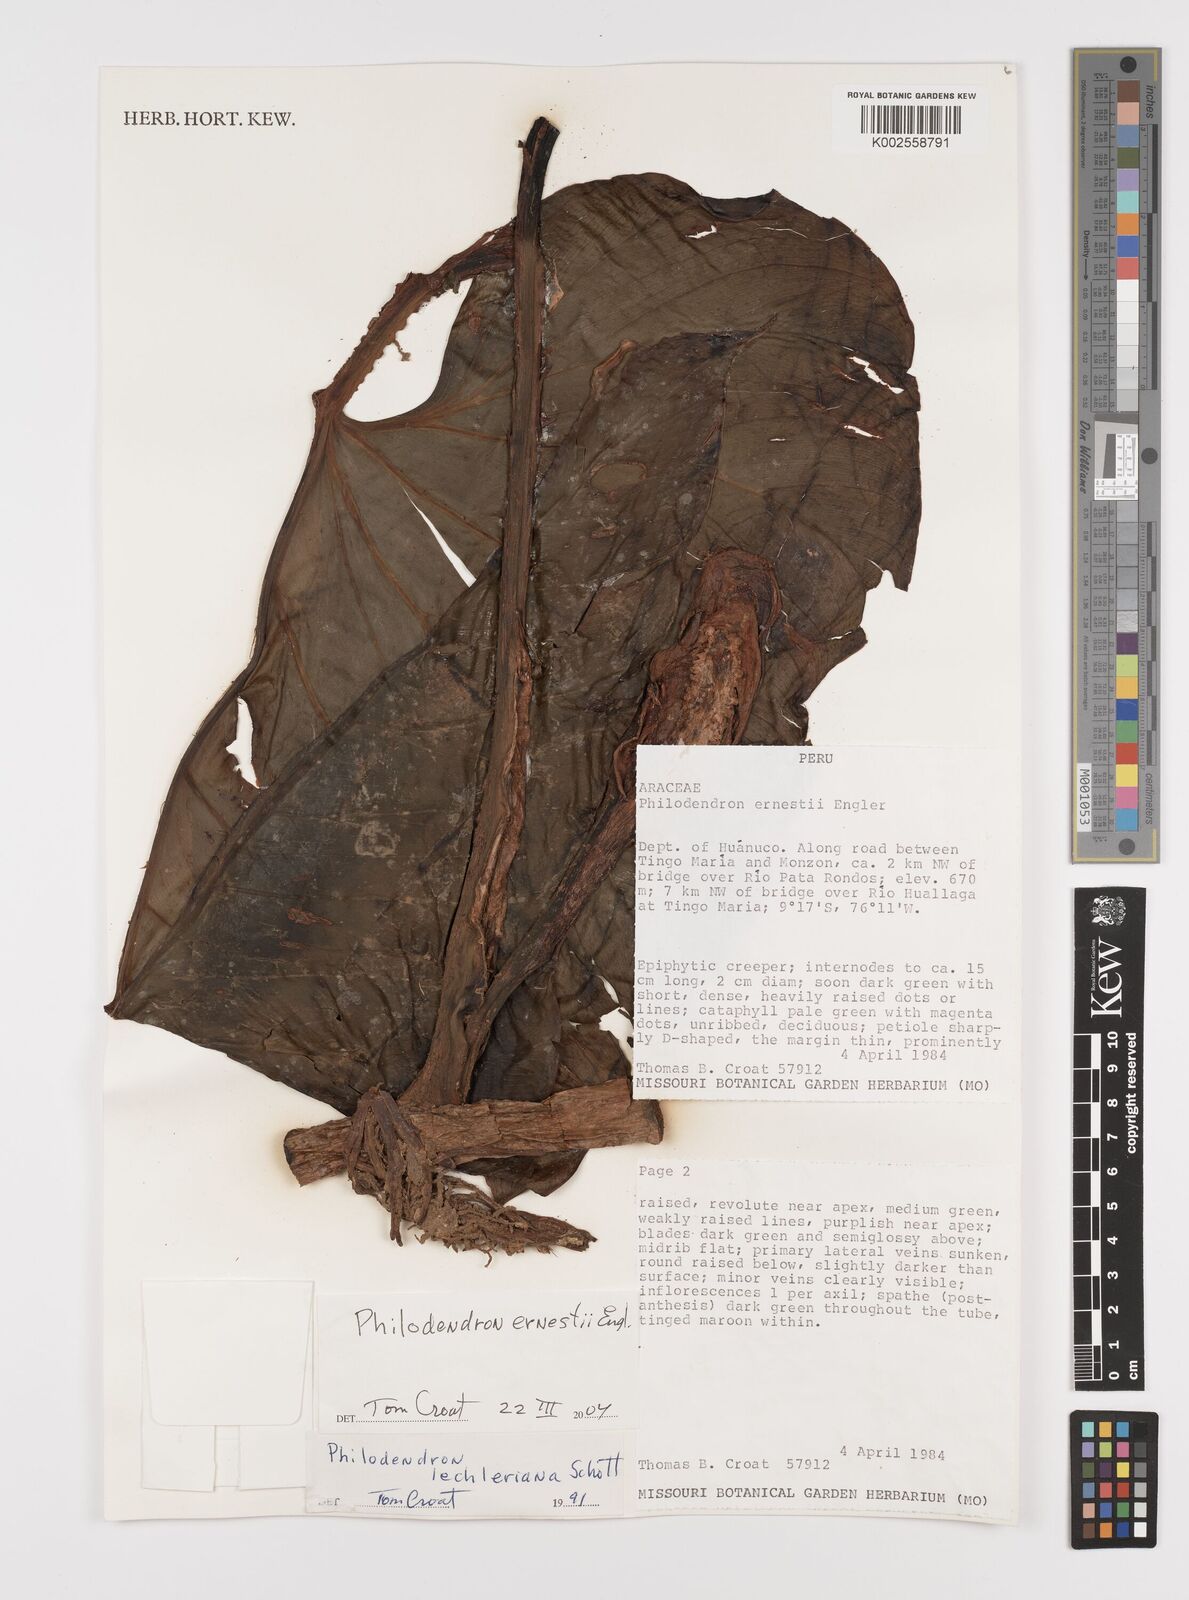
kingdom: Plantae
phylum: Tracheophyta
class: Liliopsida
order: Alismatales
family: Araceae
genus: Philodendron
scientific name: Philodendron ernestii
